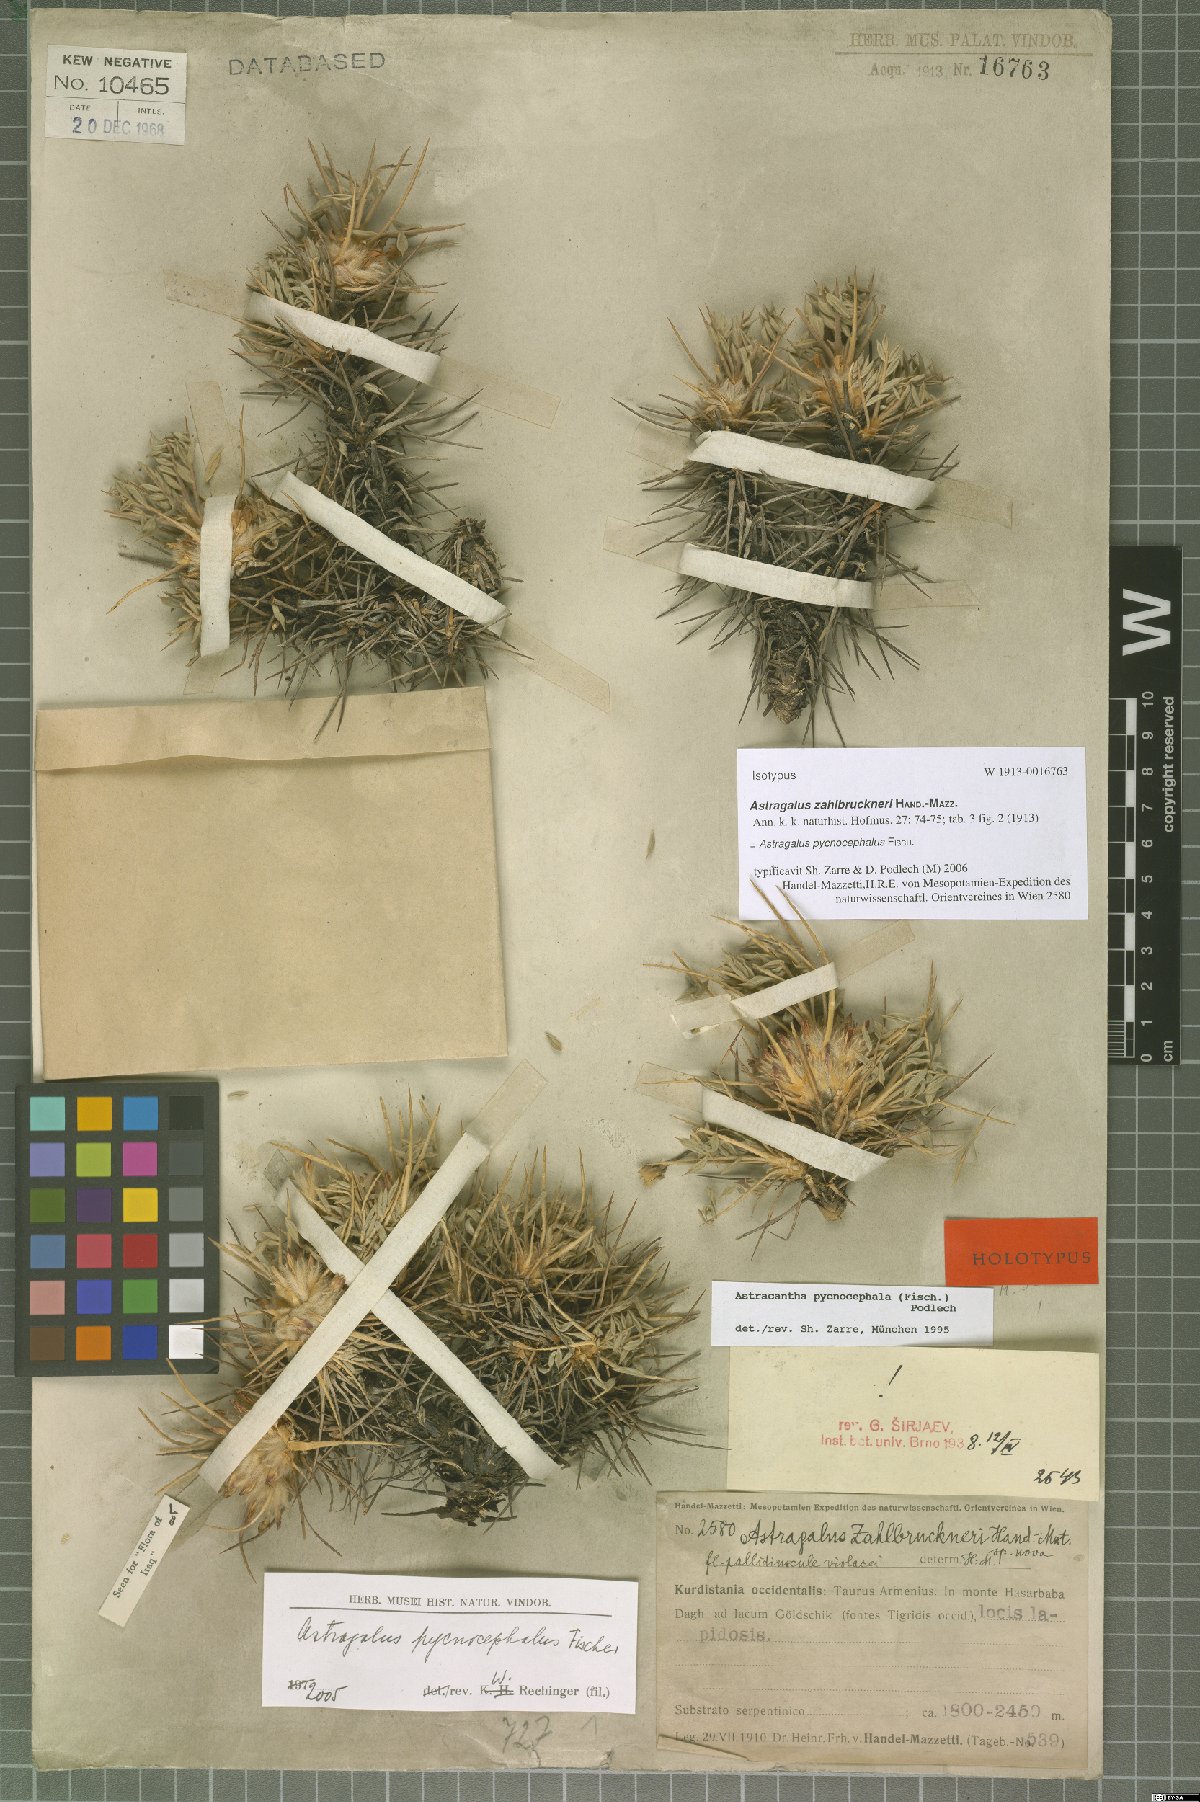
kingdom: Plantae
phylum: Tracheophyta
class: Magnoliopsida
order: Fabales
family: Fabaceae
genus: Astragalus
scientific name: Astragalus pycnocephalus
